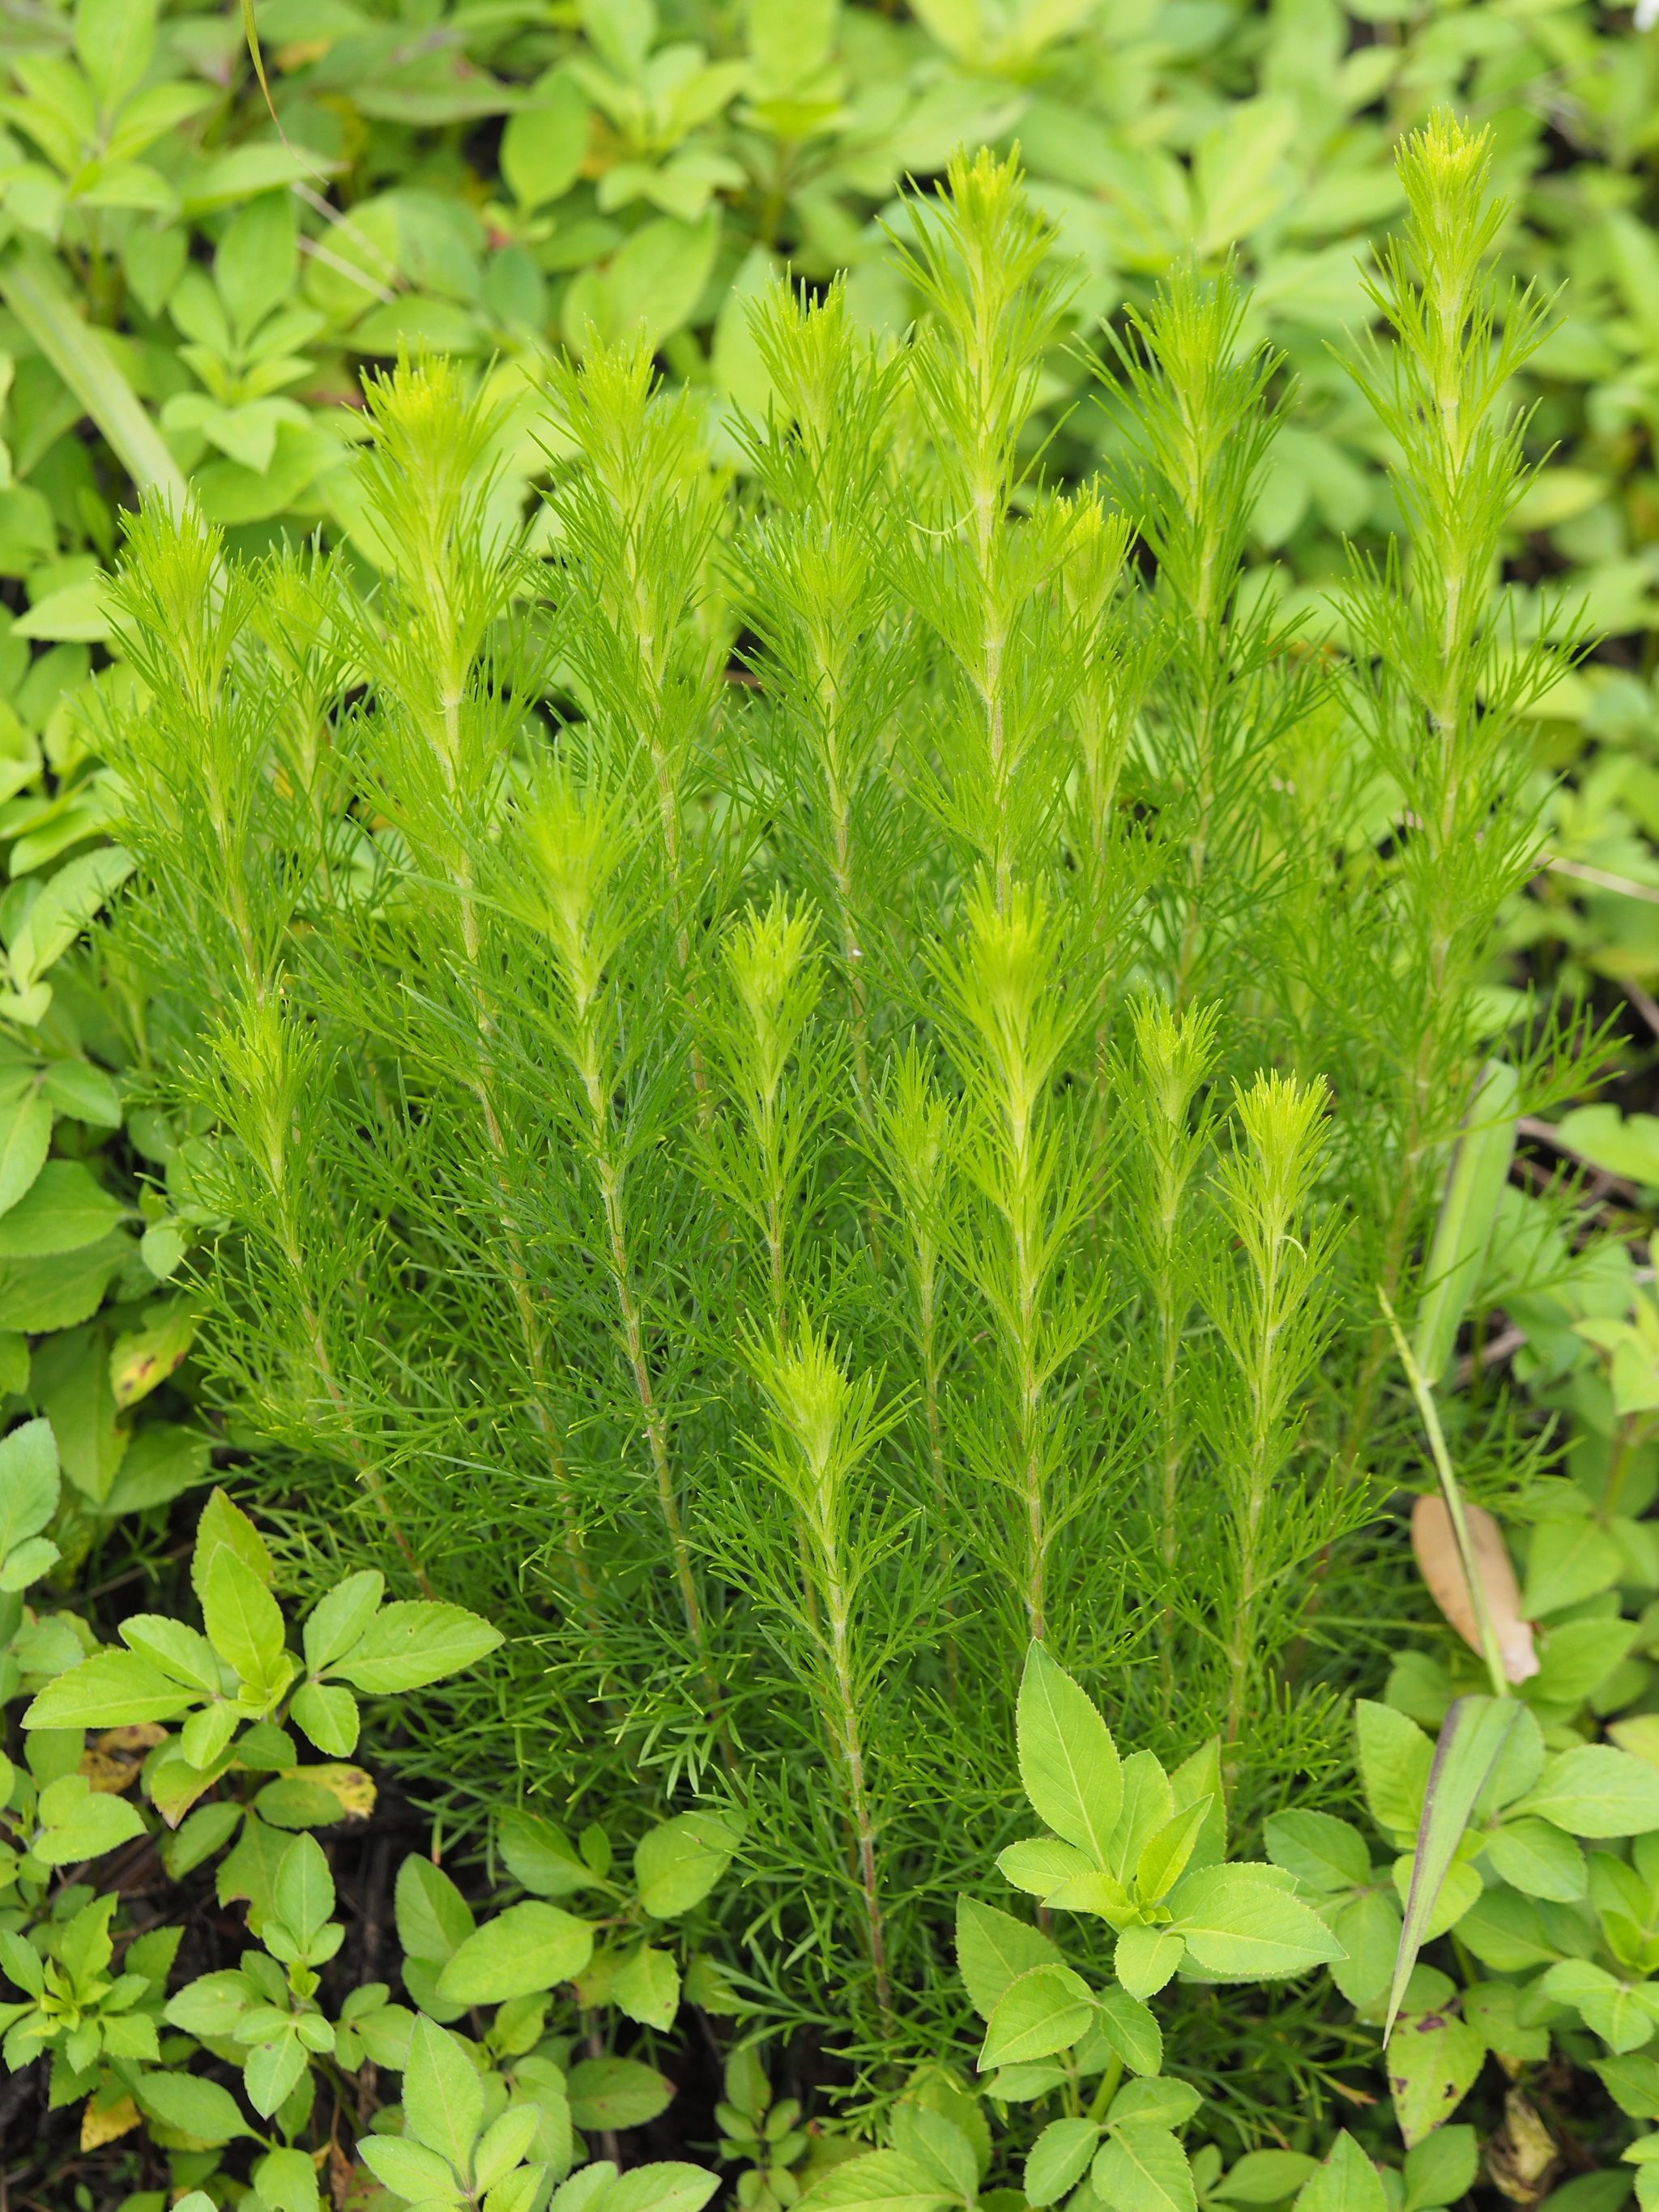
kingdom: Plantae
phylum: Tracheophyta
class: Magnoliopsida
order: Asterales
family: Asteraceae
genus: Artemisia
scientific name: Artemisia capillaris
